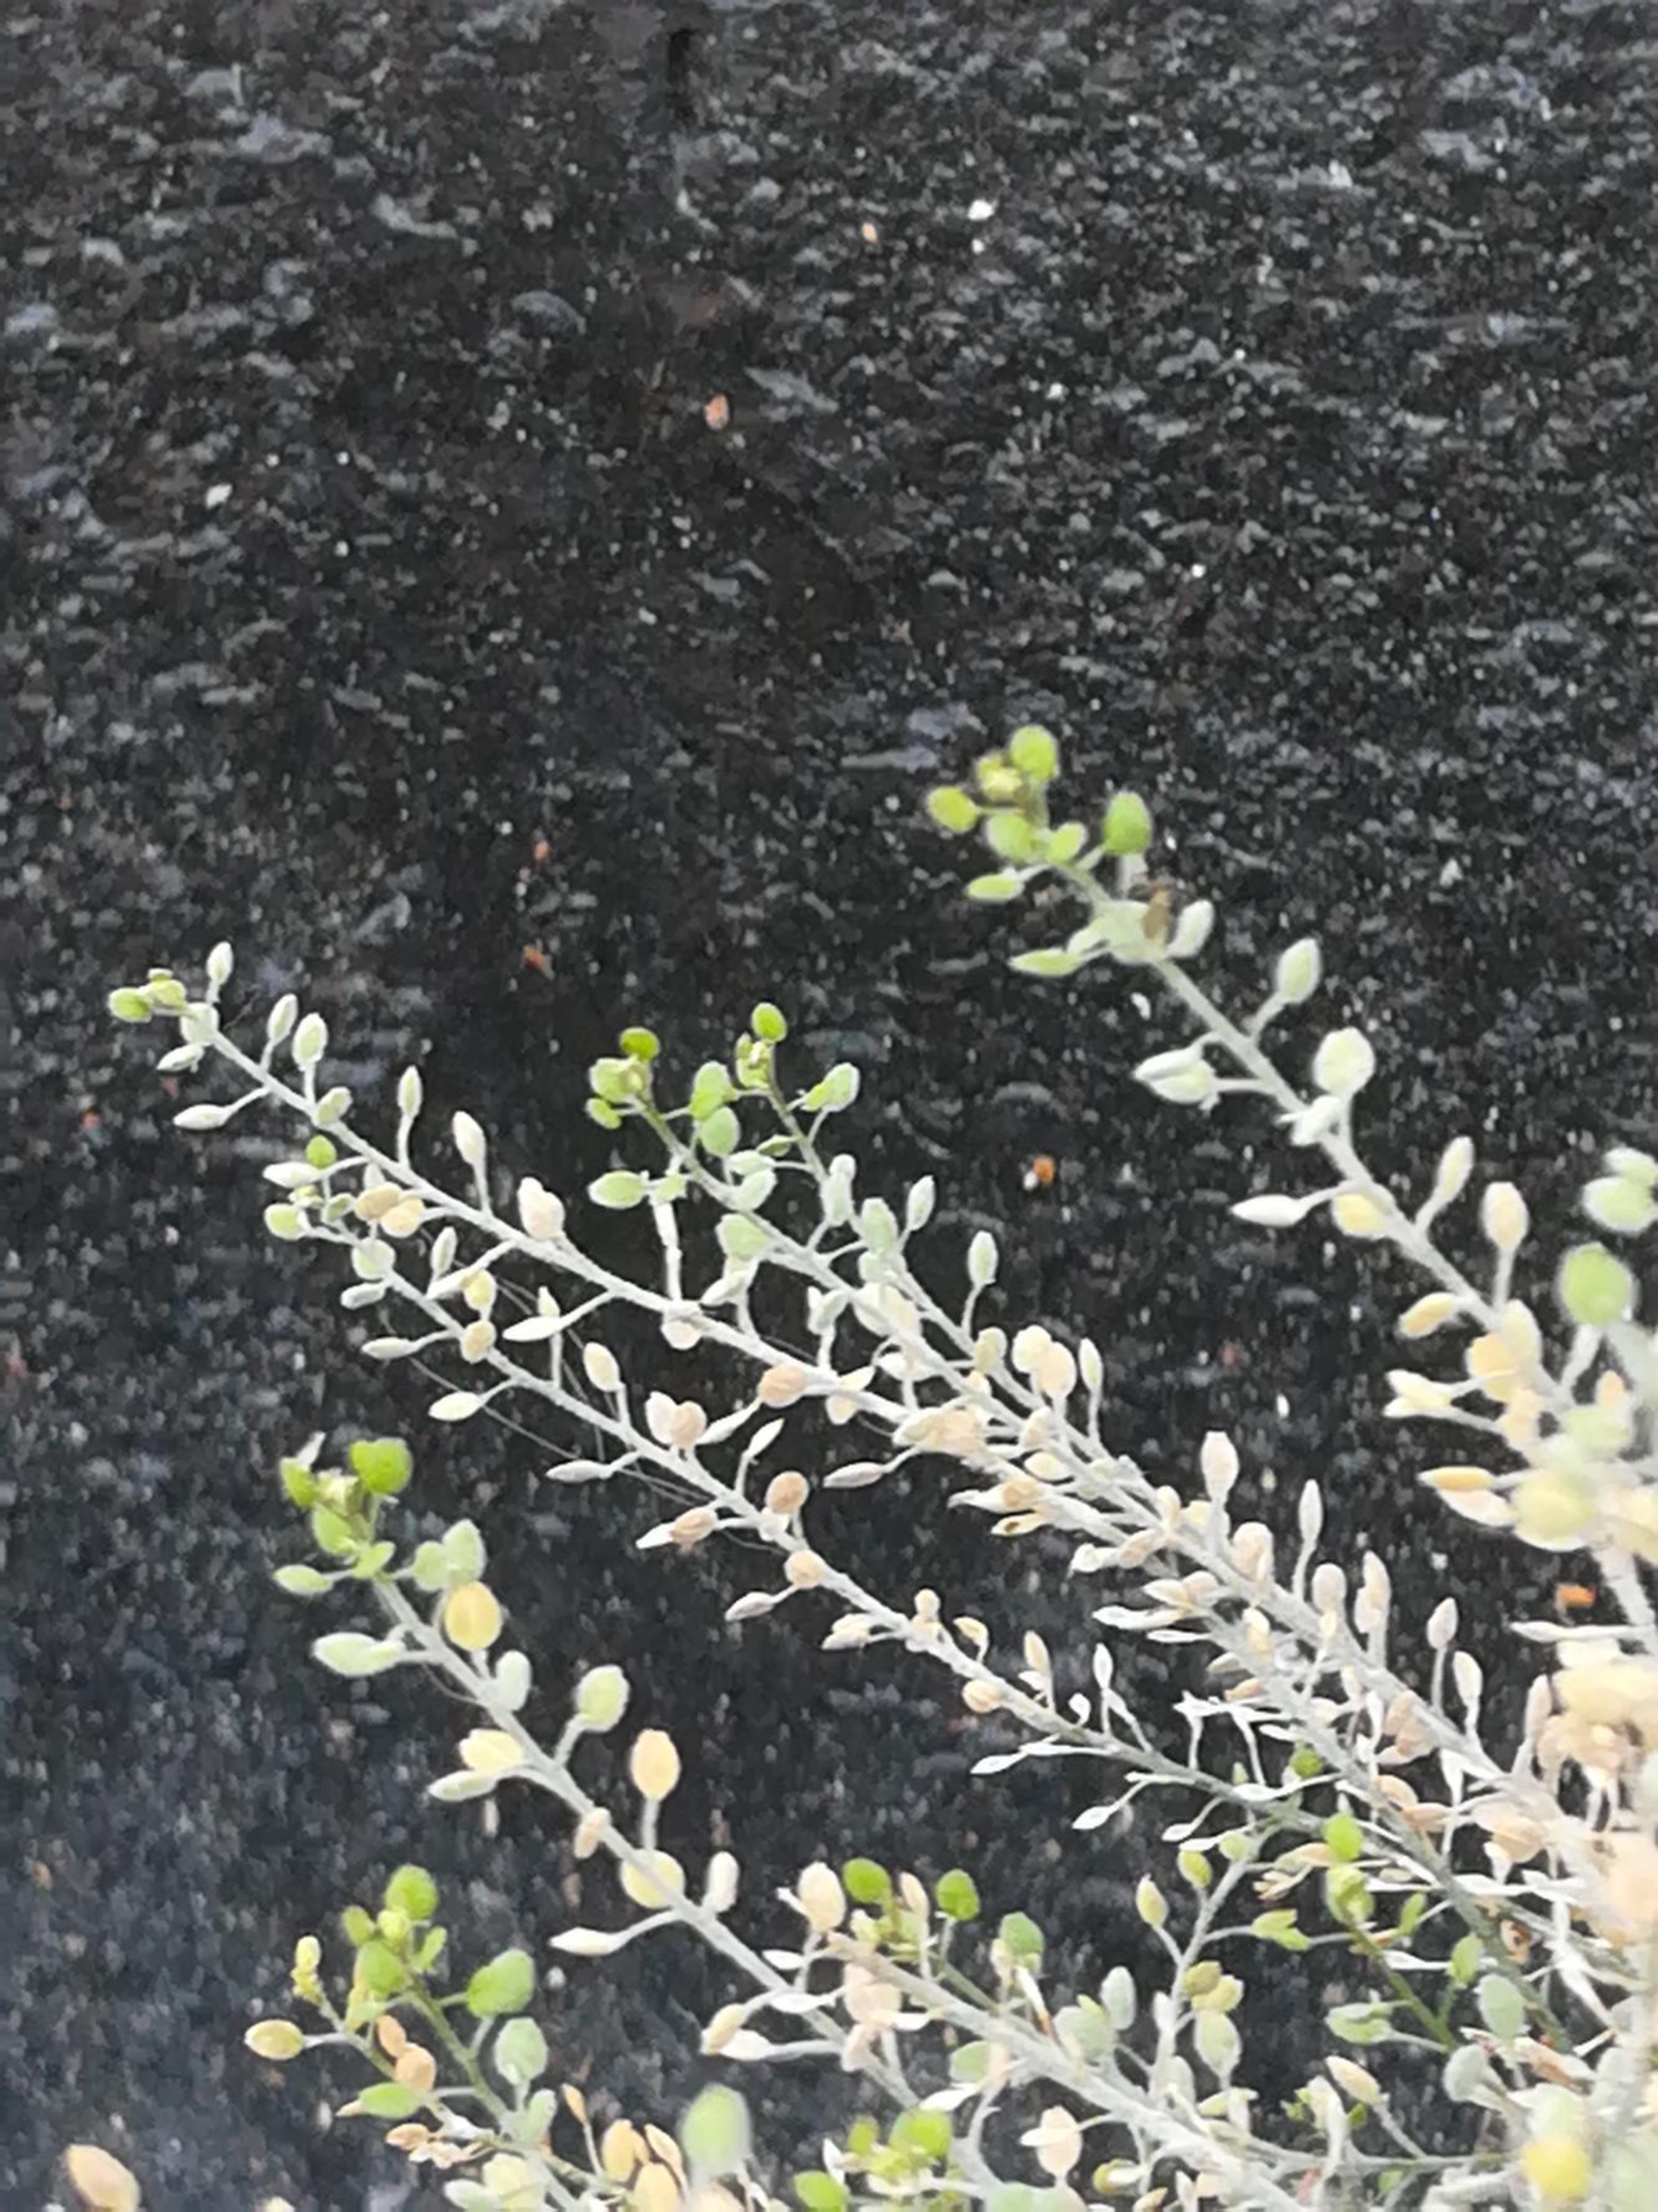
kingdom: Plantae
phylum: Tracheophyta
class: Magnoliopsida
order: Brassicales
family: Brassicaceae
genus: Lepidium
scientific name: Lepidium ruderale
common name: Stinkende karse
